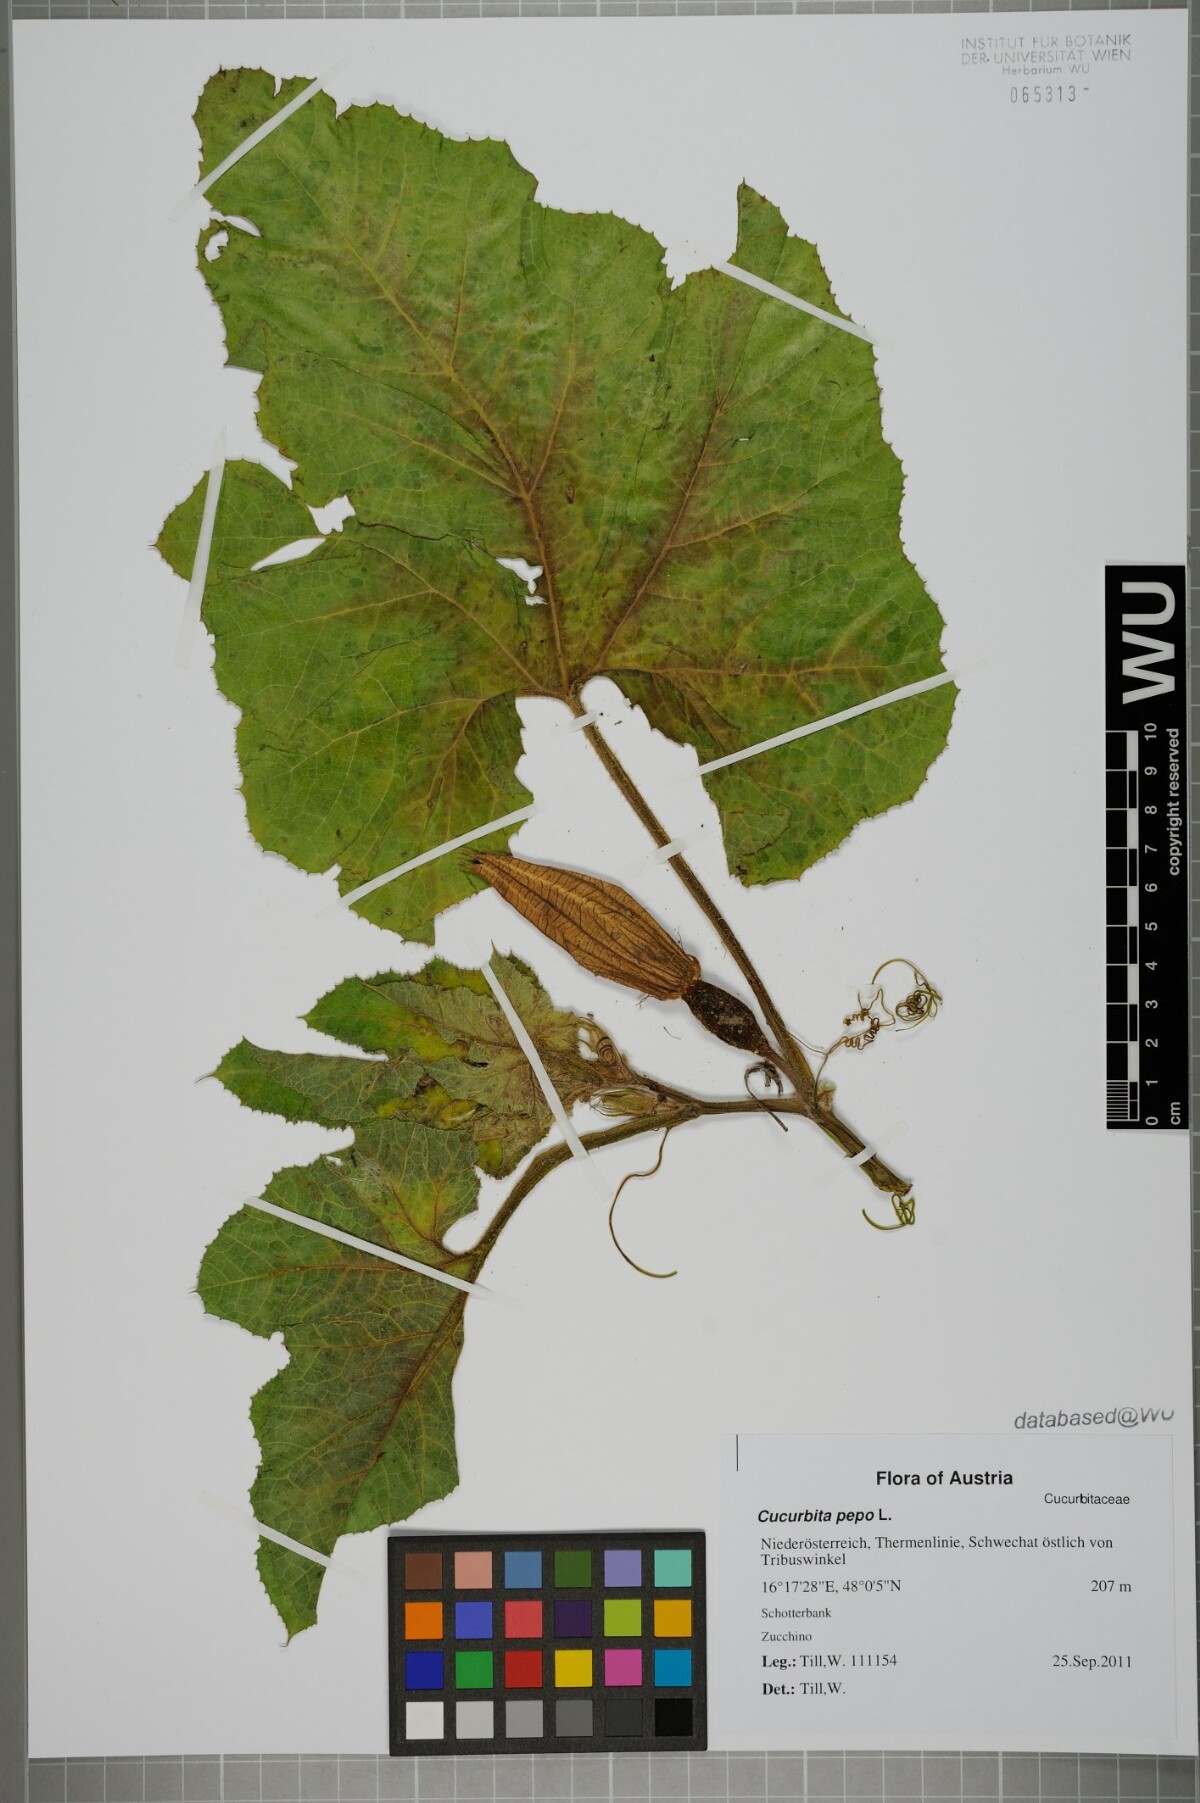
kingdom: Plantae
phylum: Tracheophyta
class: Magnoliopsida
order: Cucurbitales
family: Cucurbitaceae
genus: Cucurbita
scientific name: Cucurbita pepo
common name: Marrow
